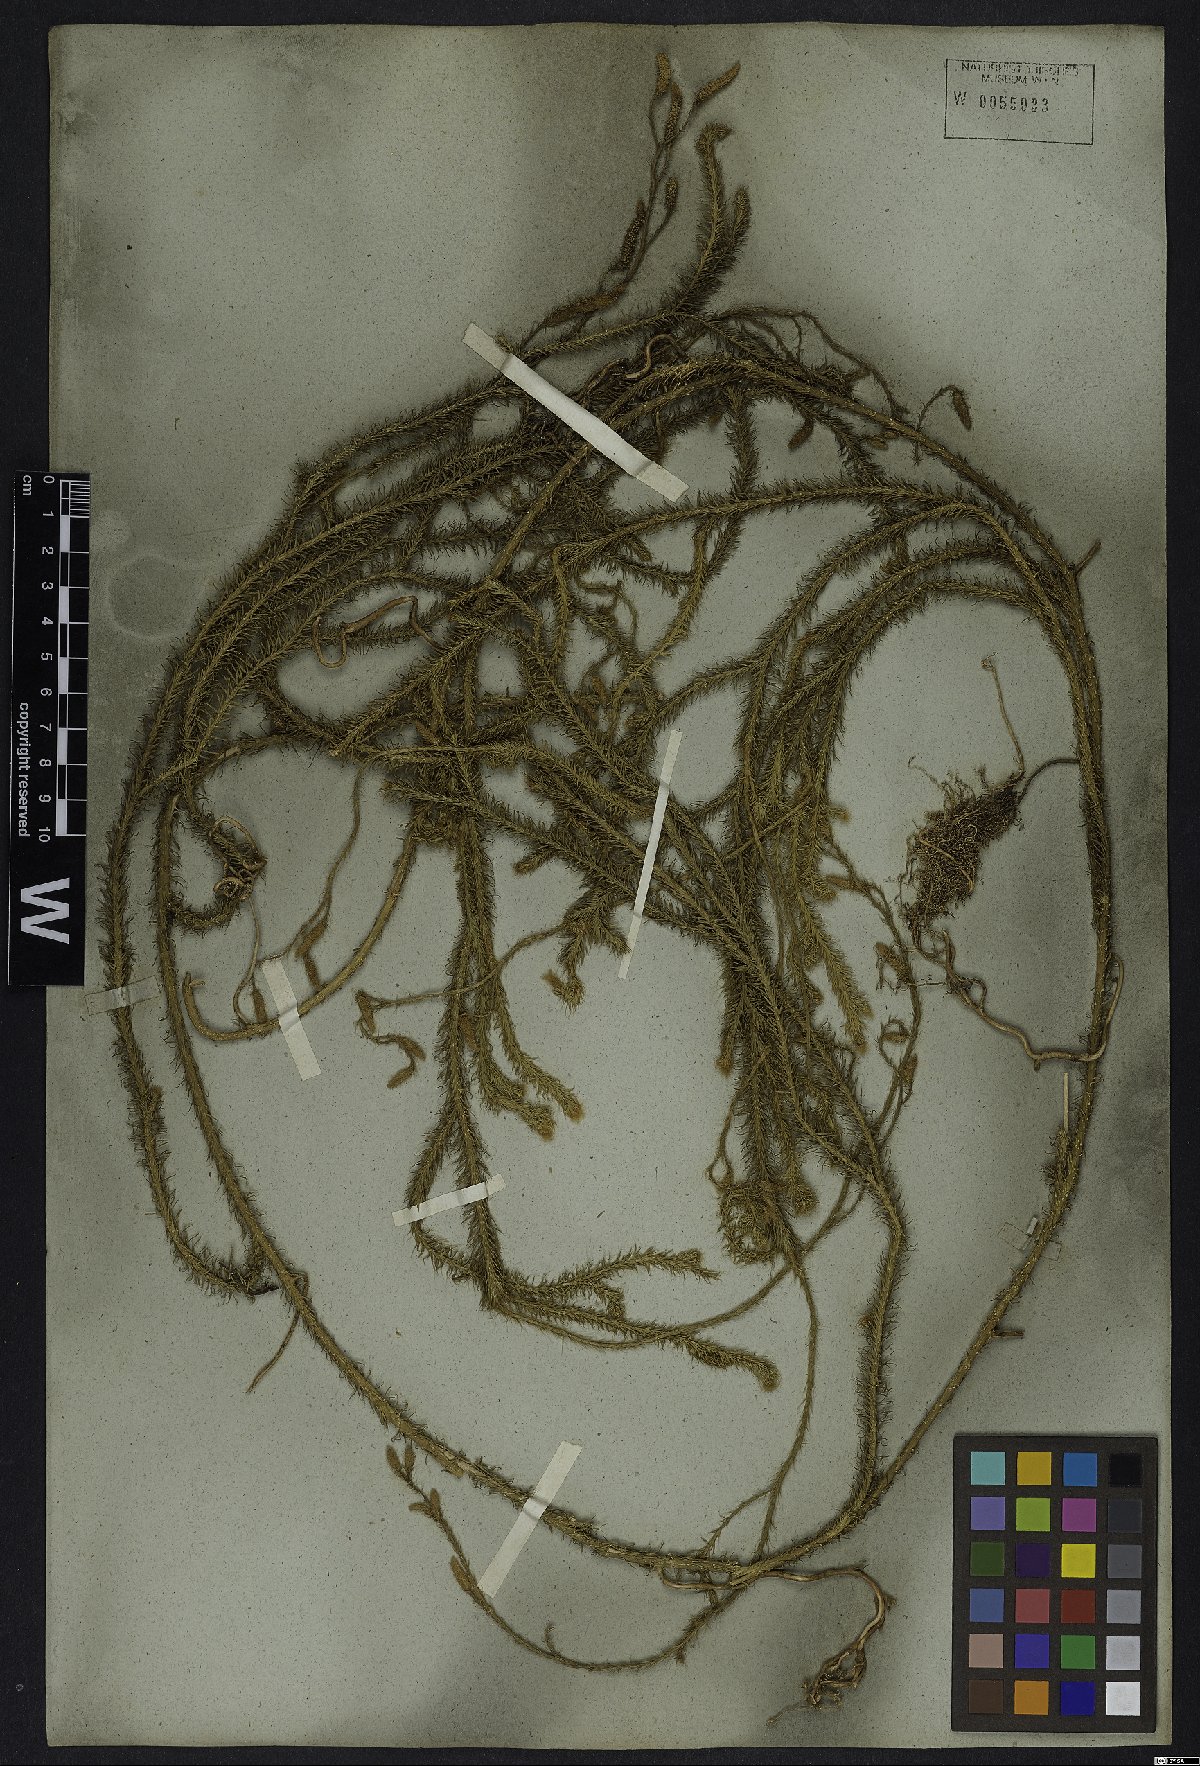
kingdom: Plantae
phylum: Tracheophyta
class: Lycopodiopsida
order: Lycopodiales
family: Lycopodiaceae
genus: Lycopodium
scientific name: Lycopodium clavatum
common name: Stag's-horn clubmoss
